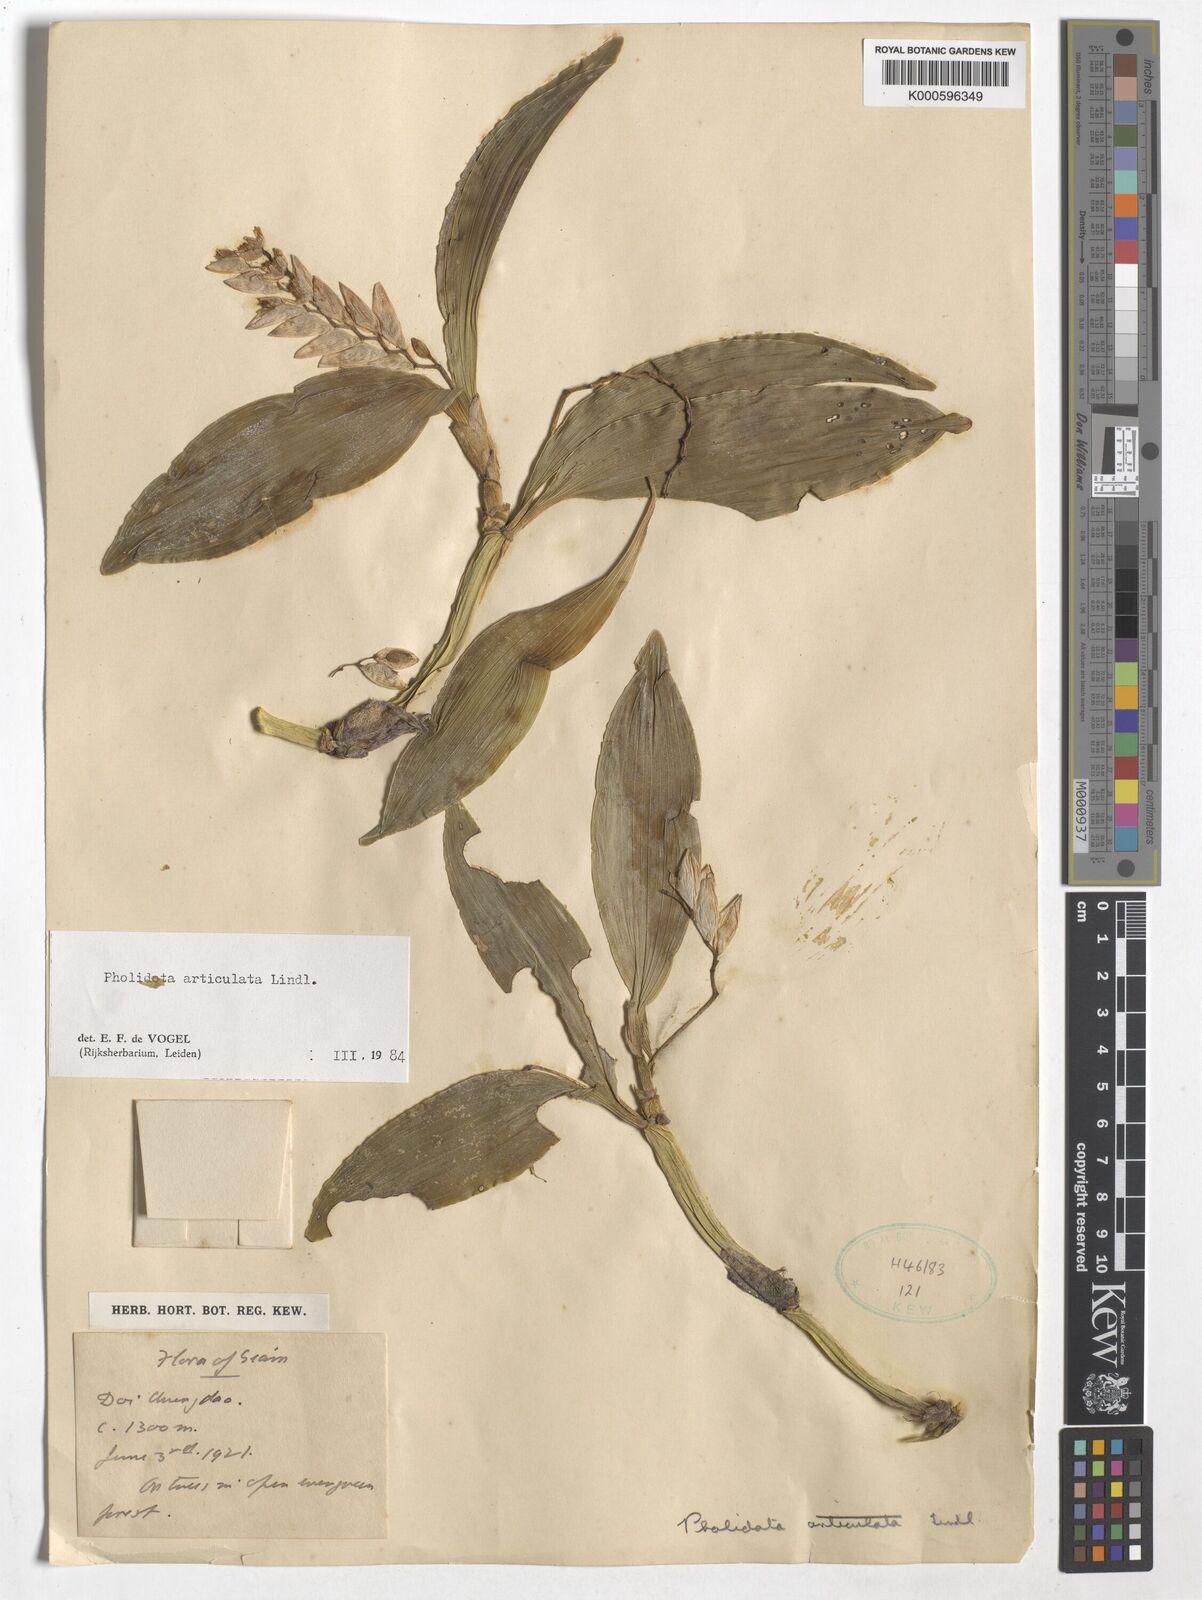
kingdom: Plantae
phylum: Tracheophyta
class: Liliopsida
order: Asparagales
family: Orchidaceae
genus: Coelogyne
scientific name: Coelogyne articulata
